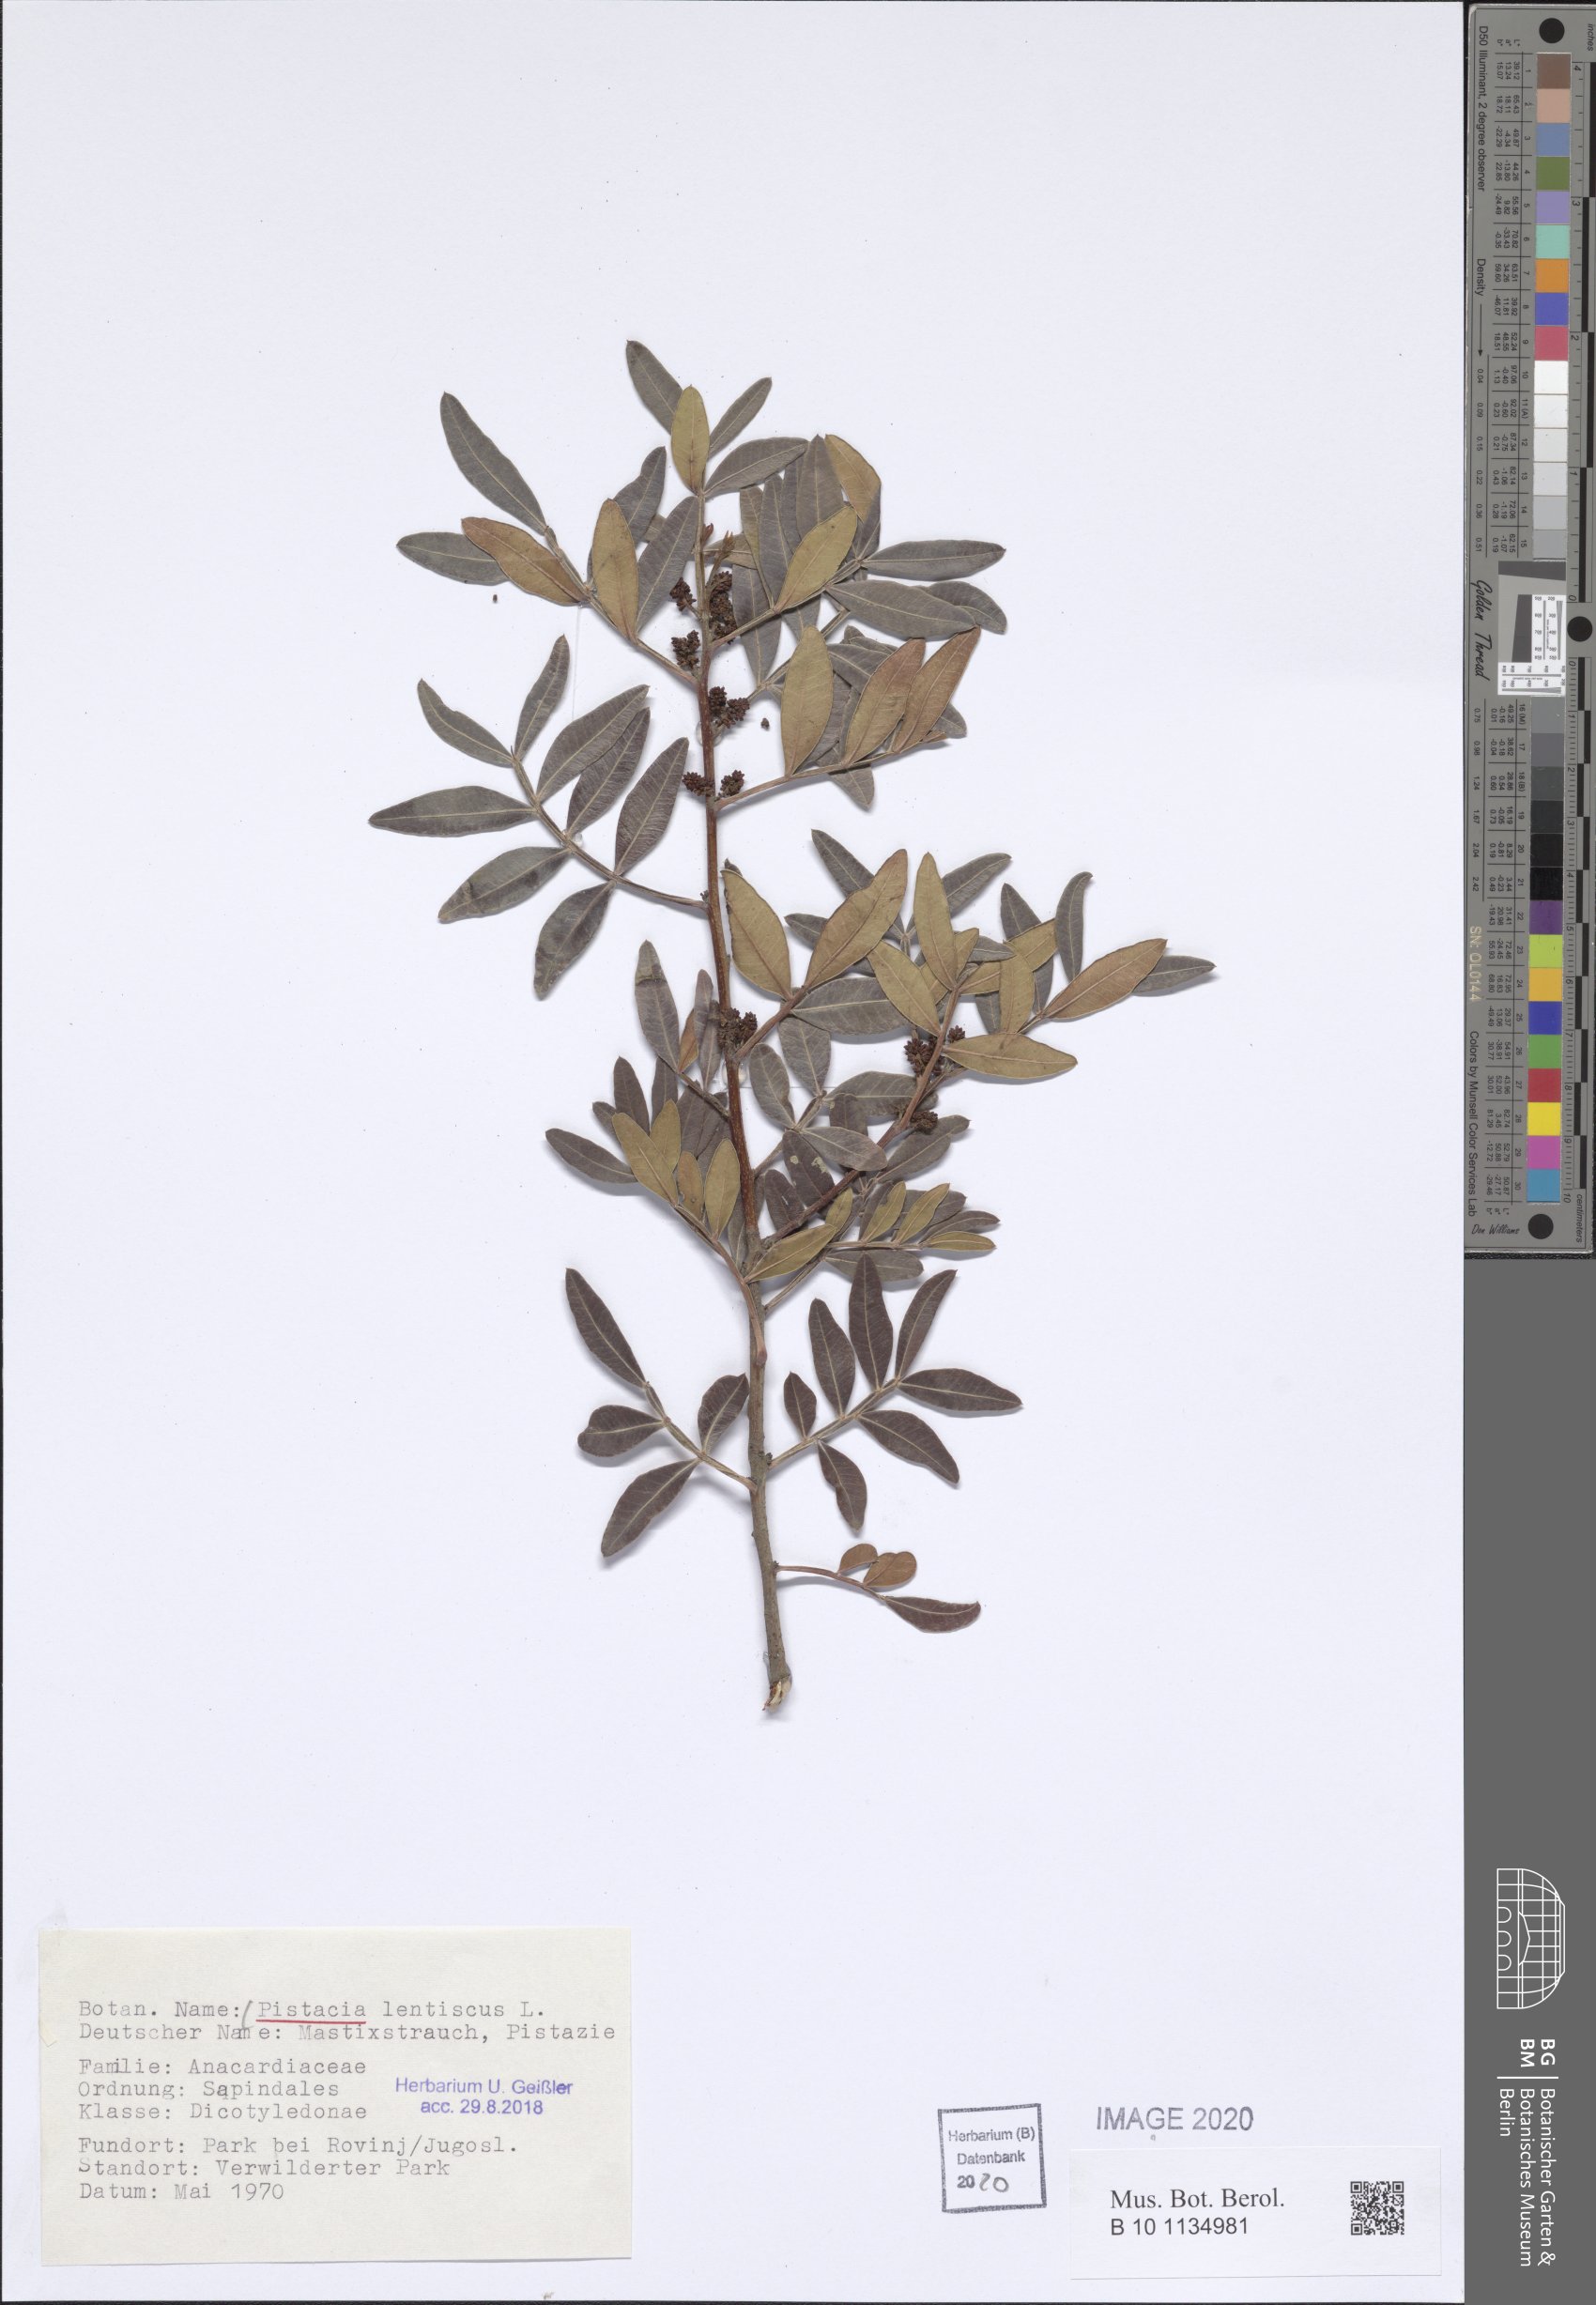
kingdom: Plantae
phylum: Tracheophyta
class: Magnoliopsida
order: Sapindales
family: Anacardiaceae
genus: Pistacia
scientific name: Pistacia lentiscus
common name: Lentisk
